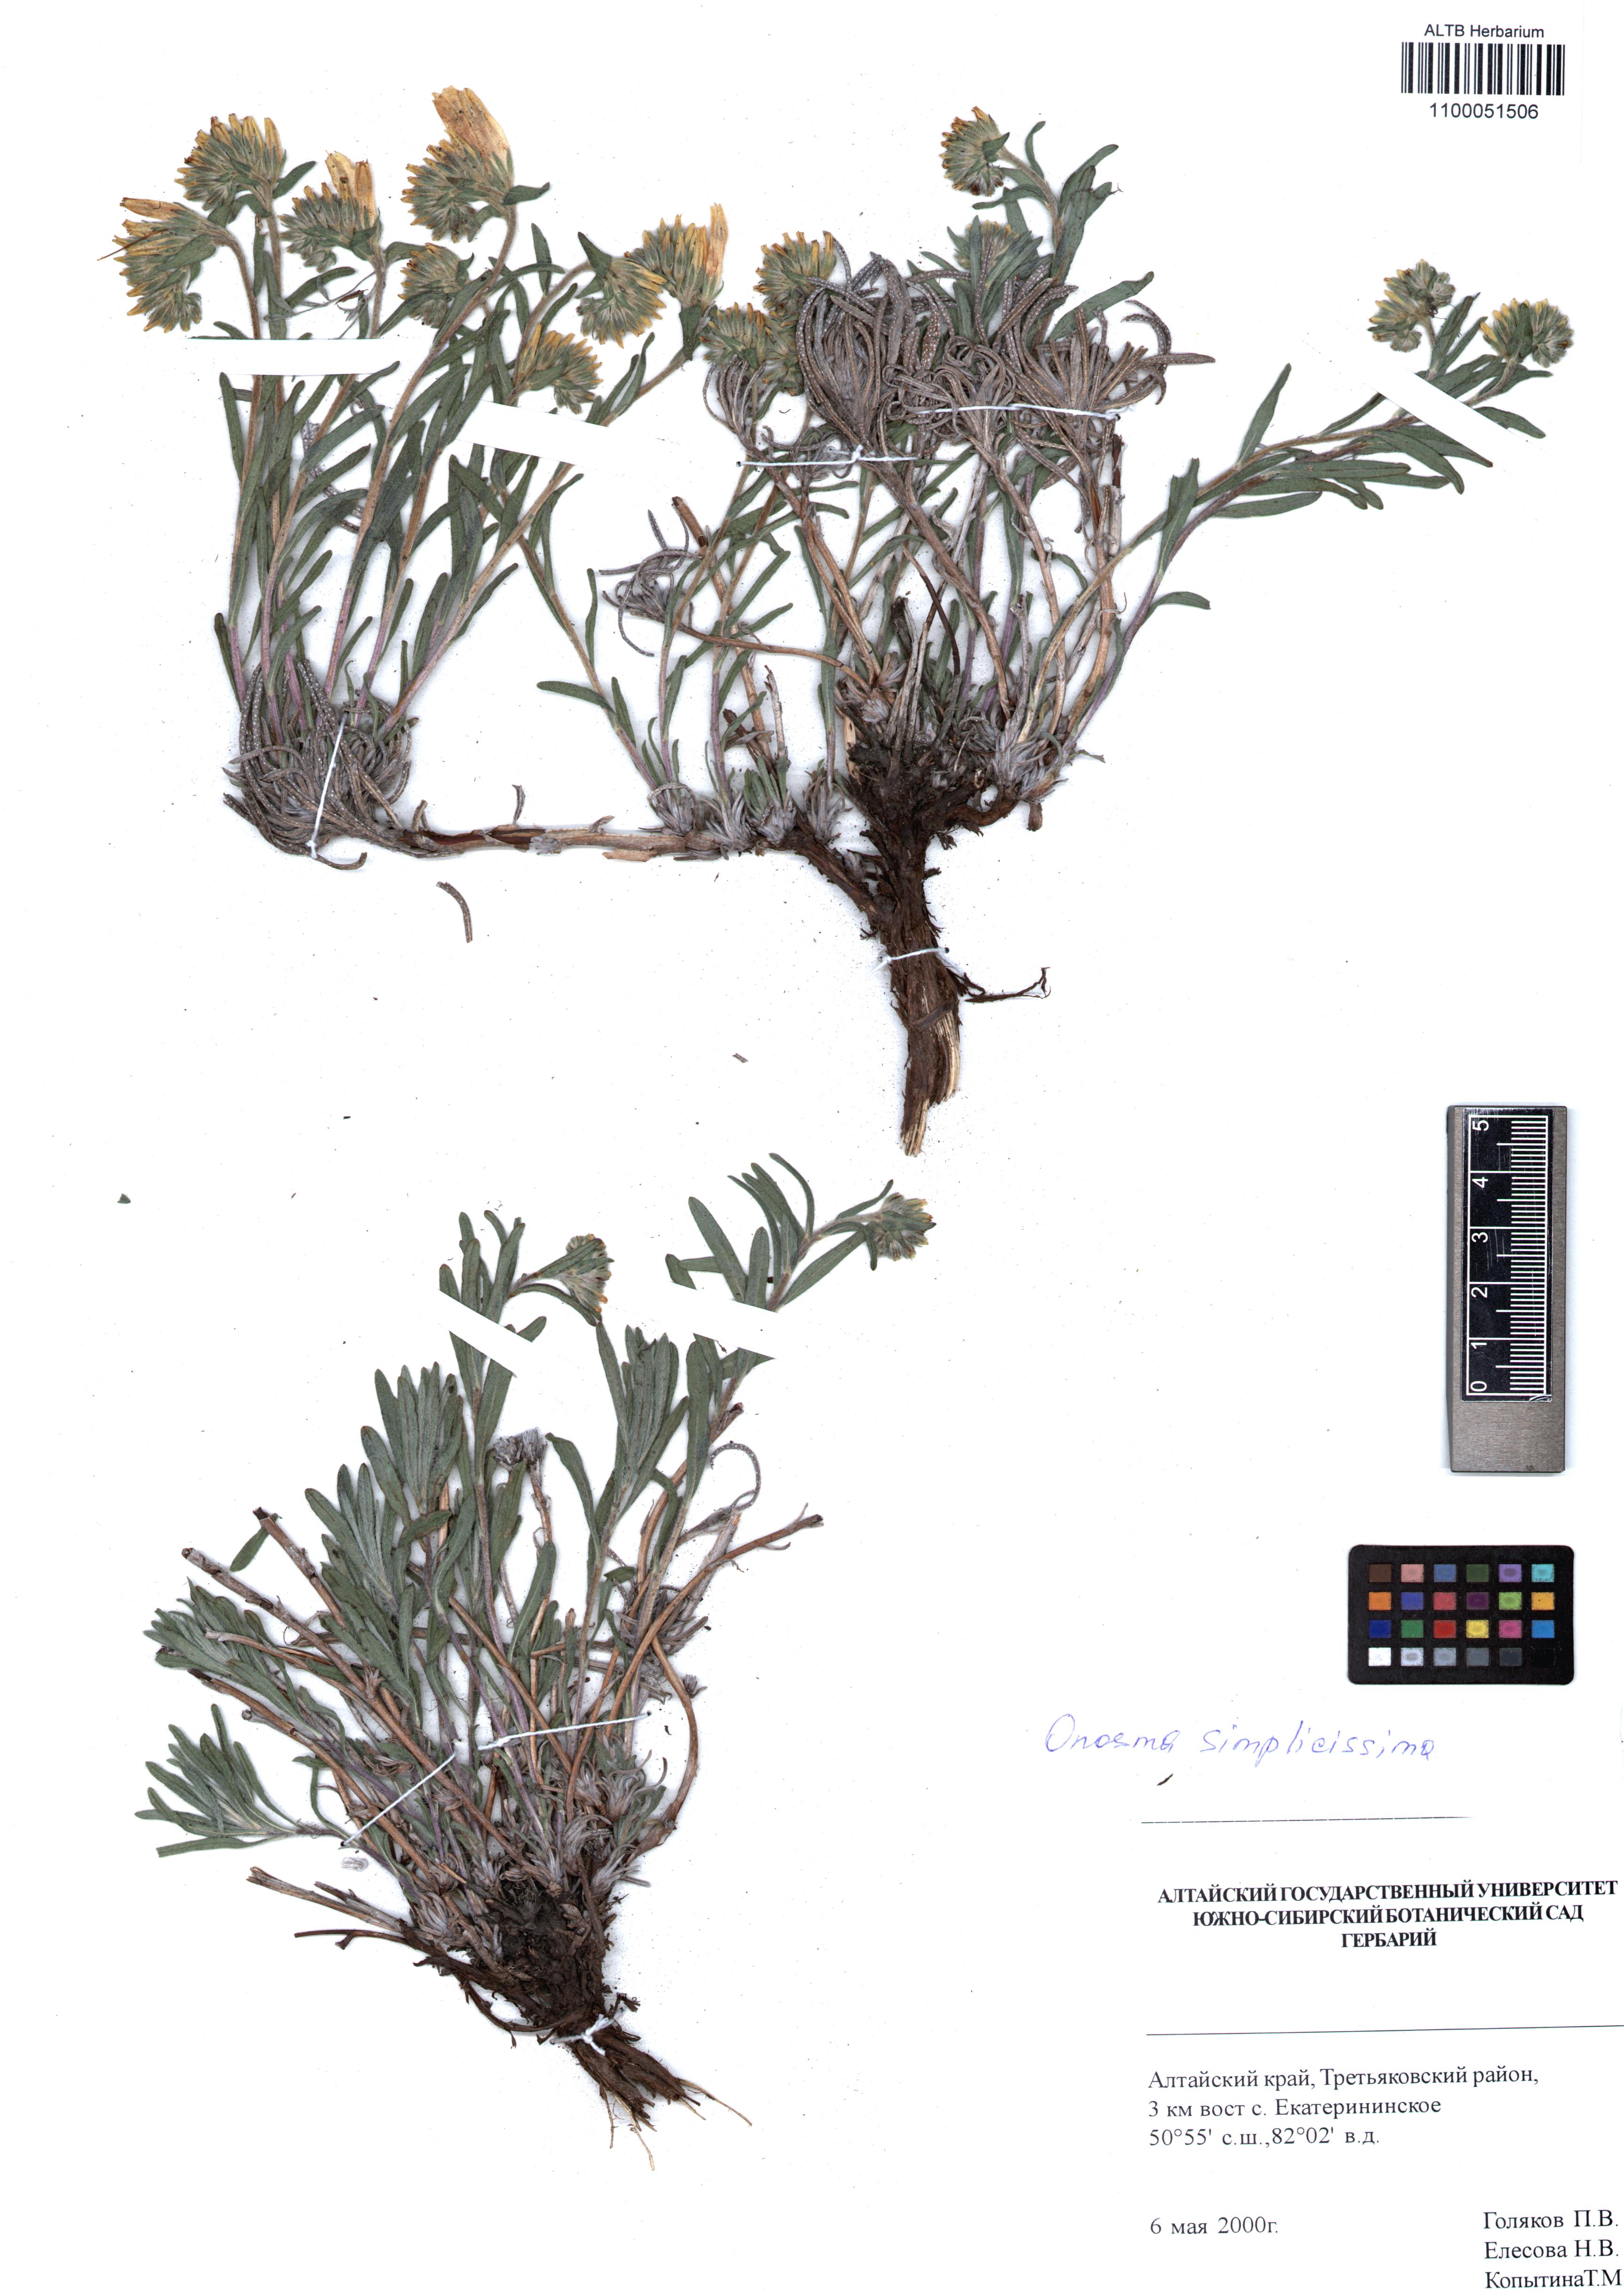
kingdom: Plantae
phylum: Tracheophyta
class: Magnoliopsida
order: Boraginales
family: Boraginaceae
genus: Onosma
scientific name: Onosma simplicissima
